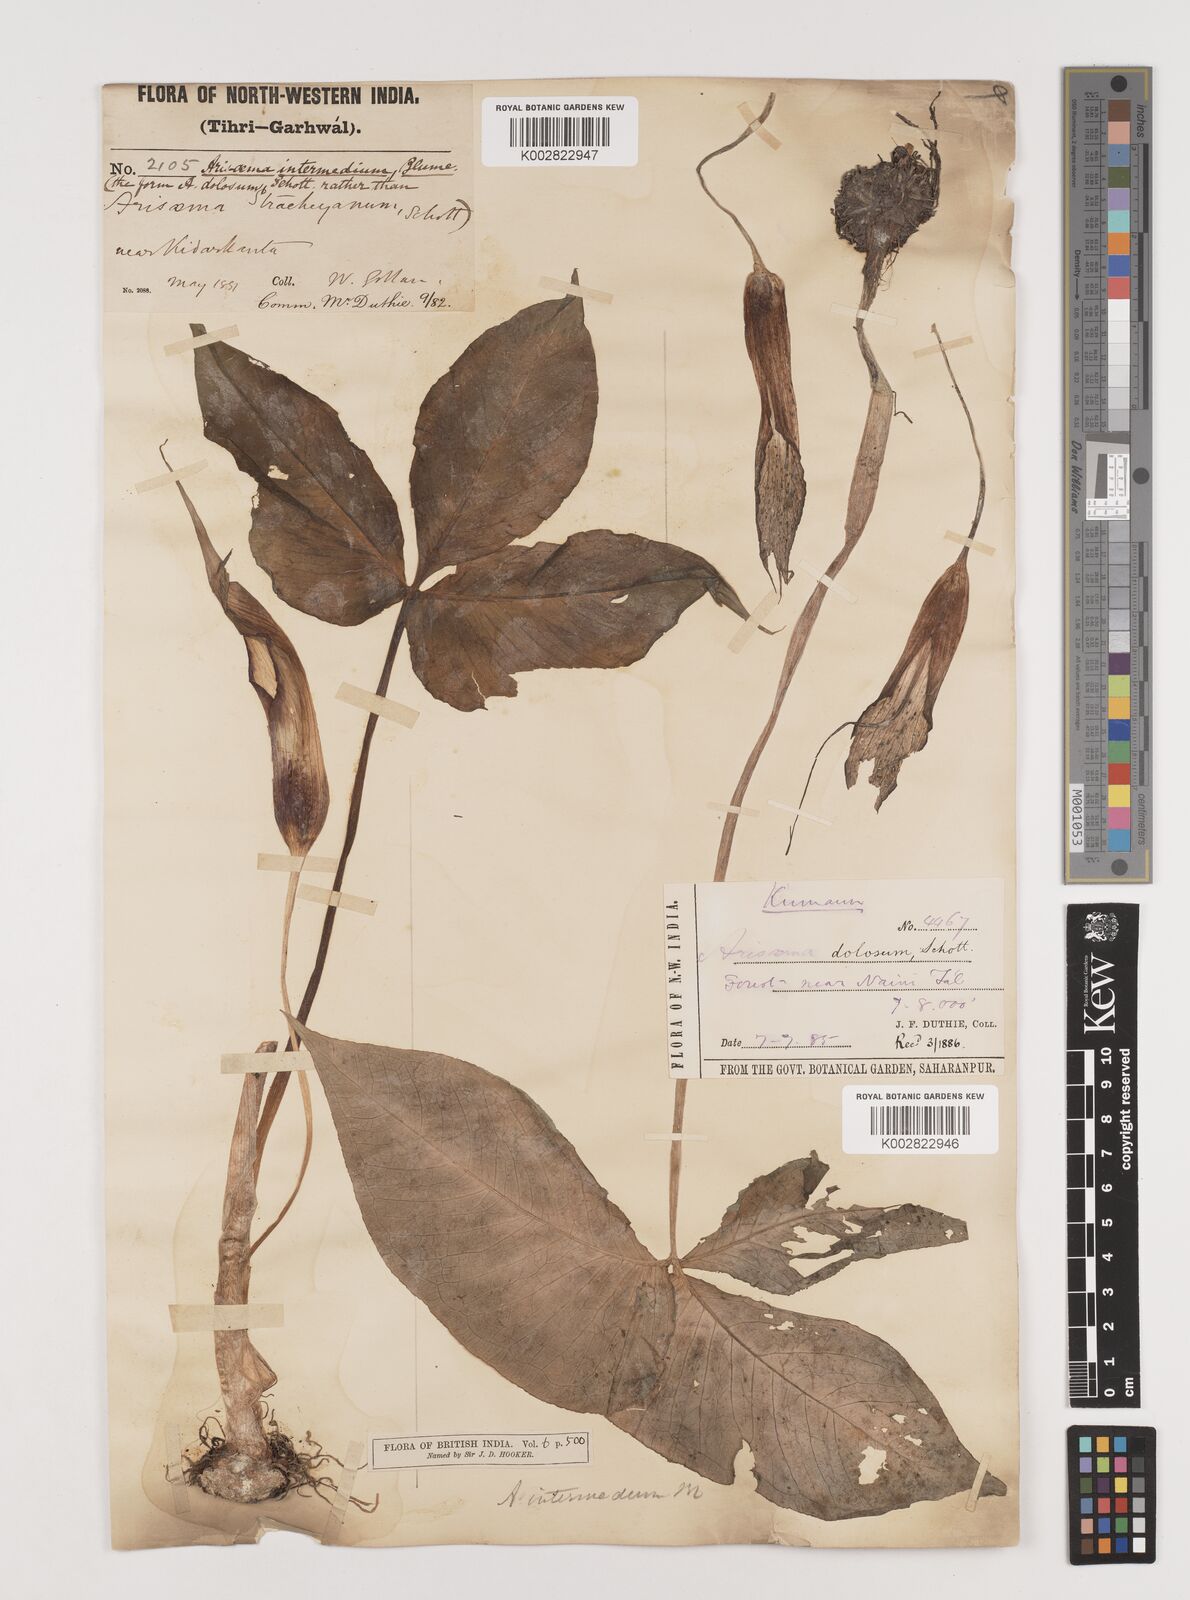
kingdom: Plantae
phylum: Tracheophyta
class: Liliopsida
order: Alismatales
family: Araceae
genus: Arisaema
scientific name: Arisaema intermedium
